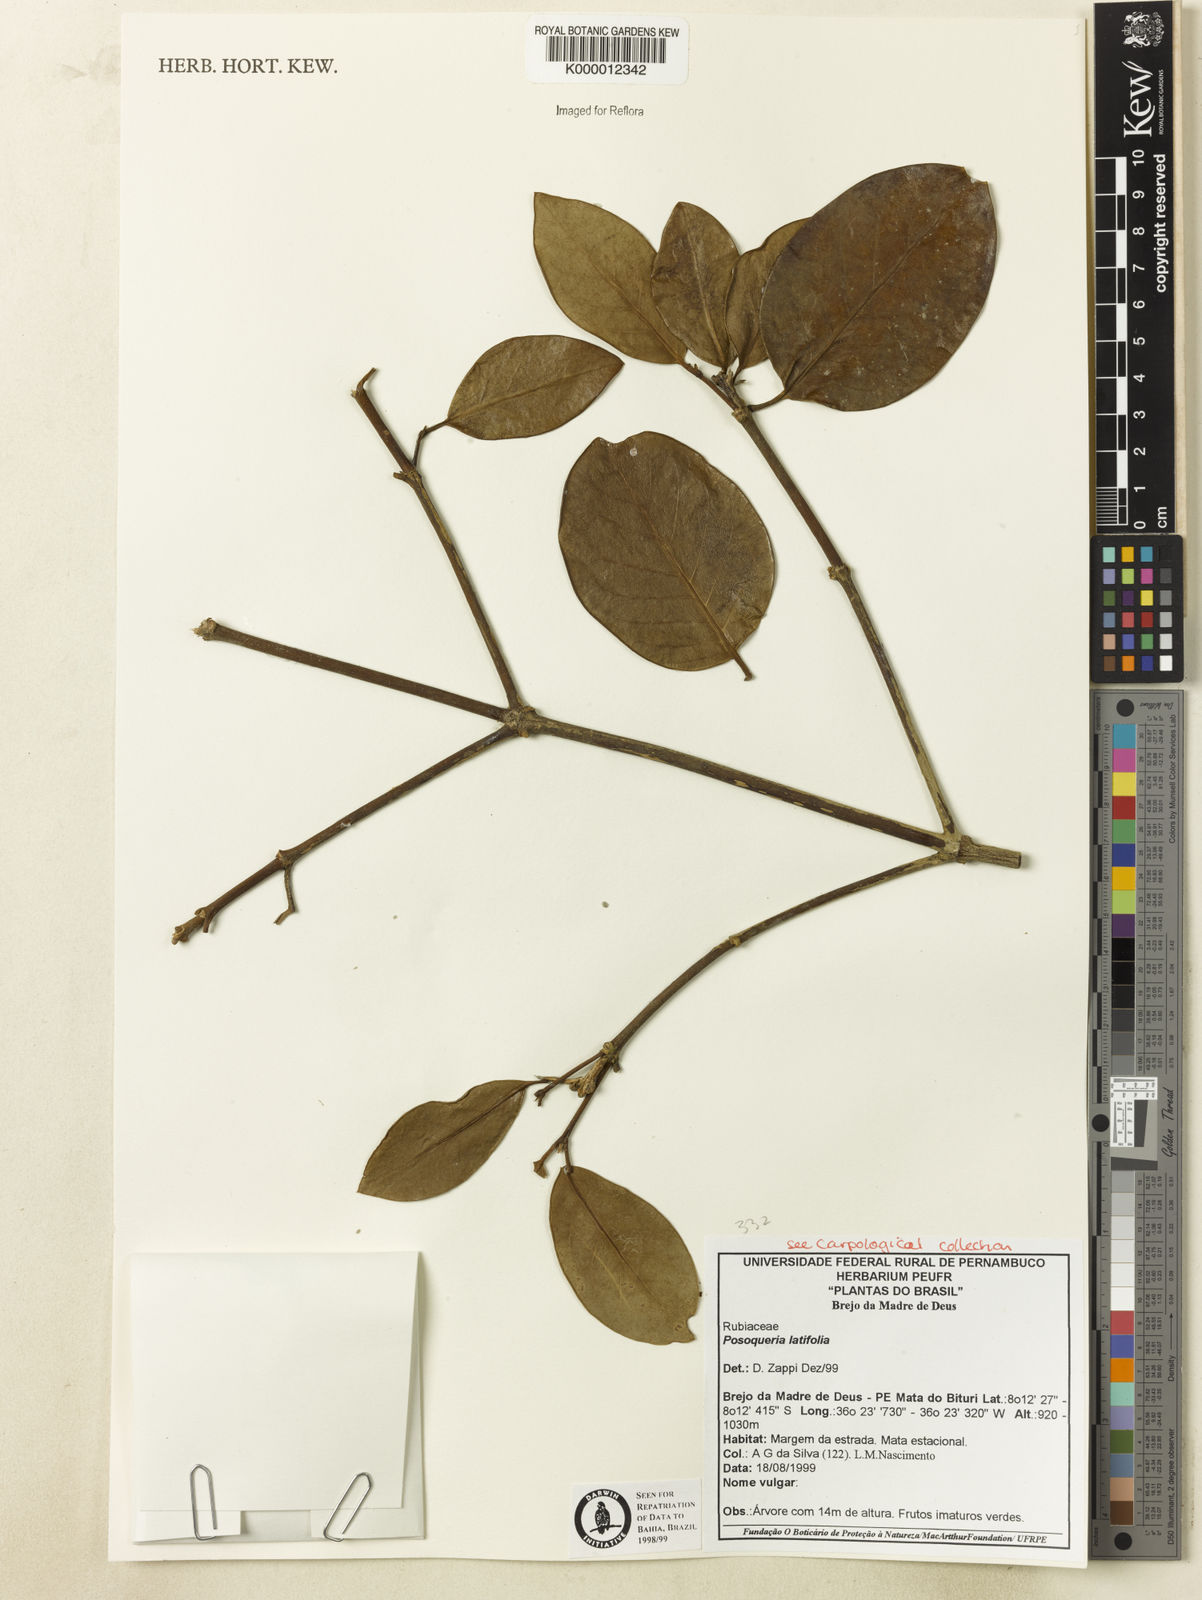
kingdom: Plantae
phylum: Tracheophyta
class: Magnoliopsida
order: Gentianales
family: Rubiaceae
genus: Posoqueria
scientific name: Posoqueria
